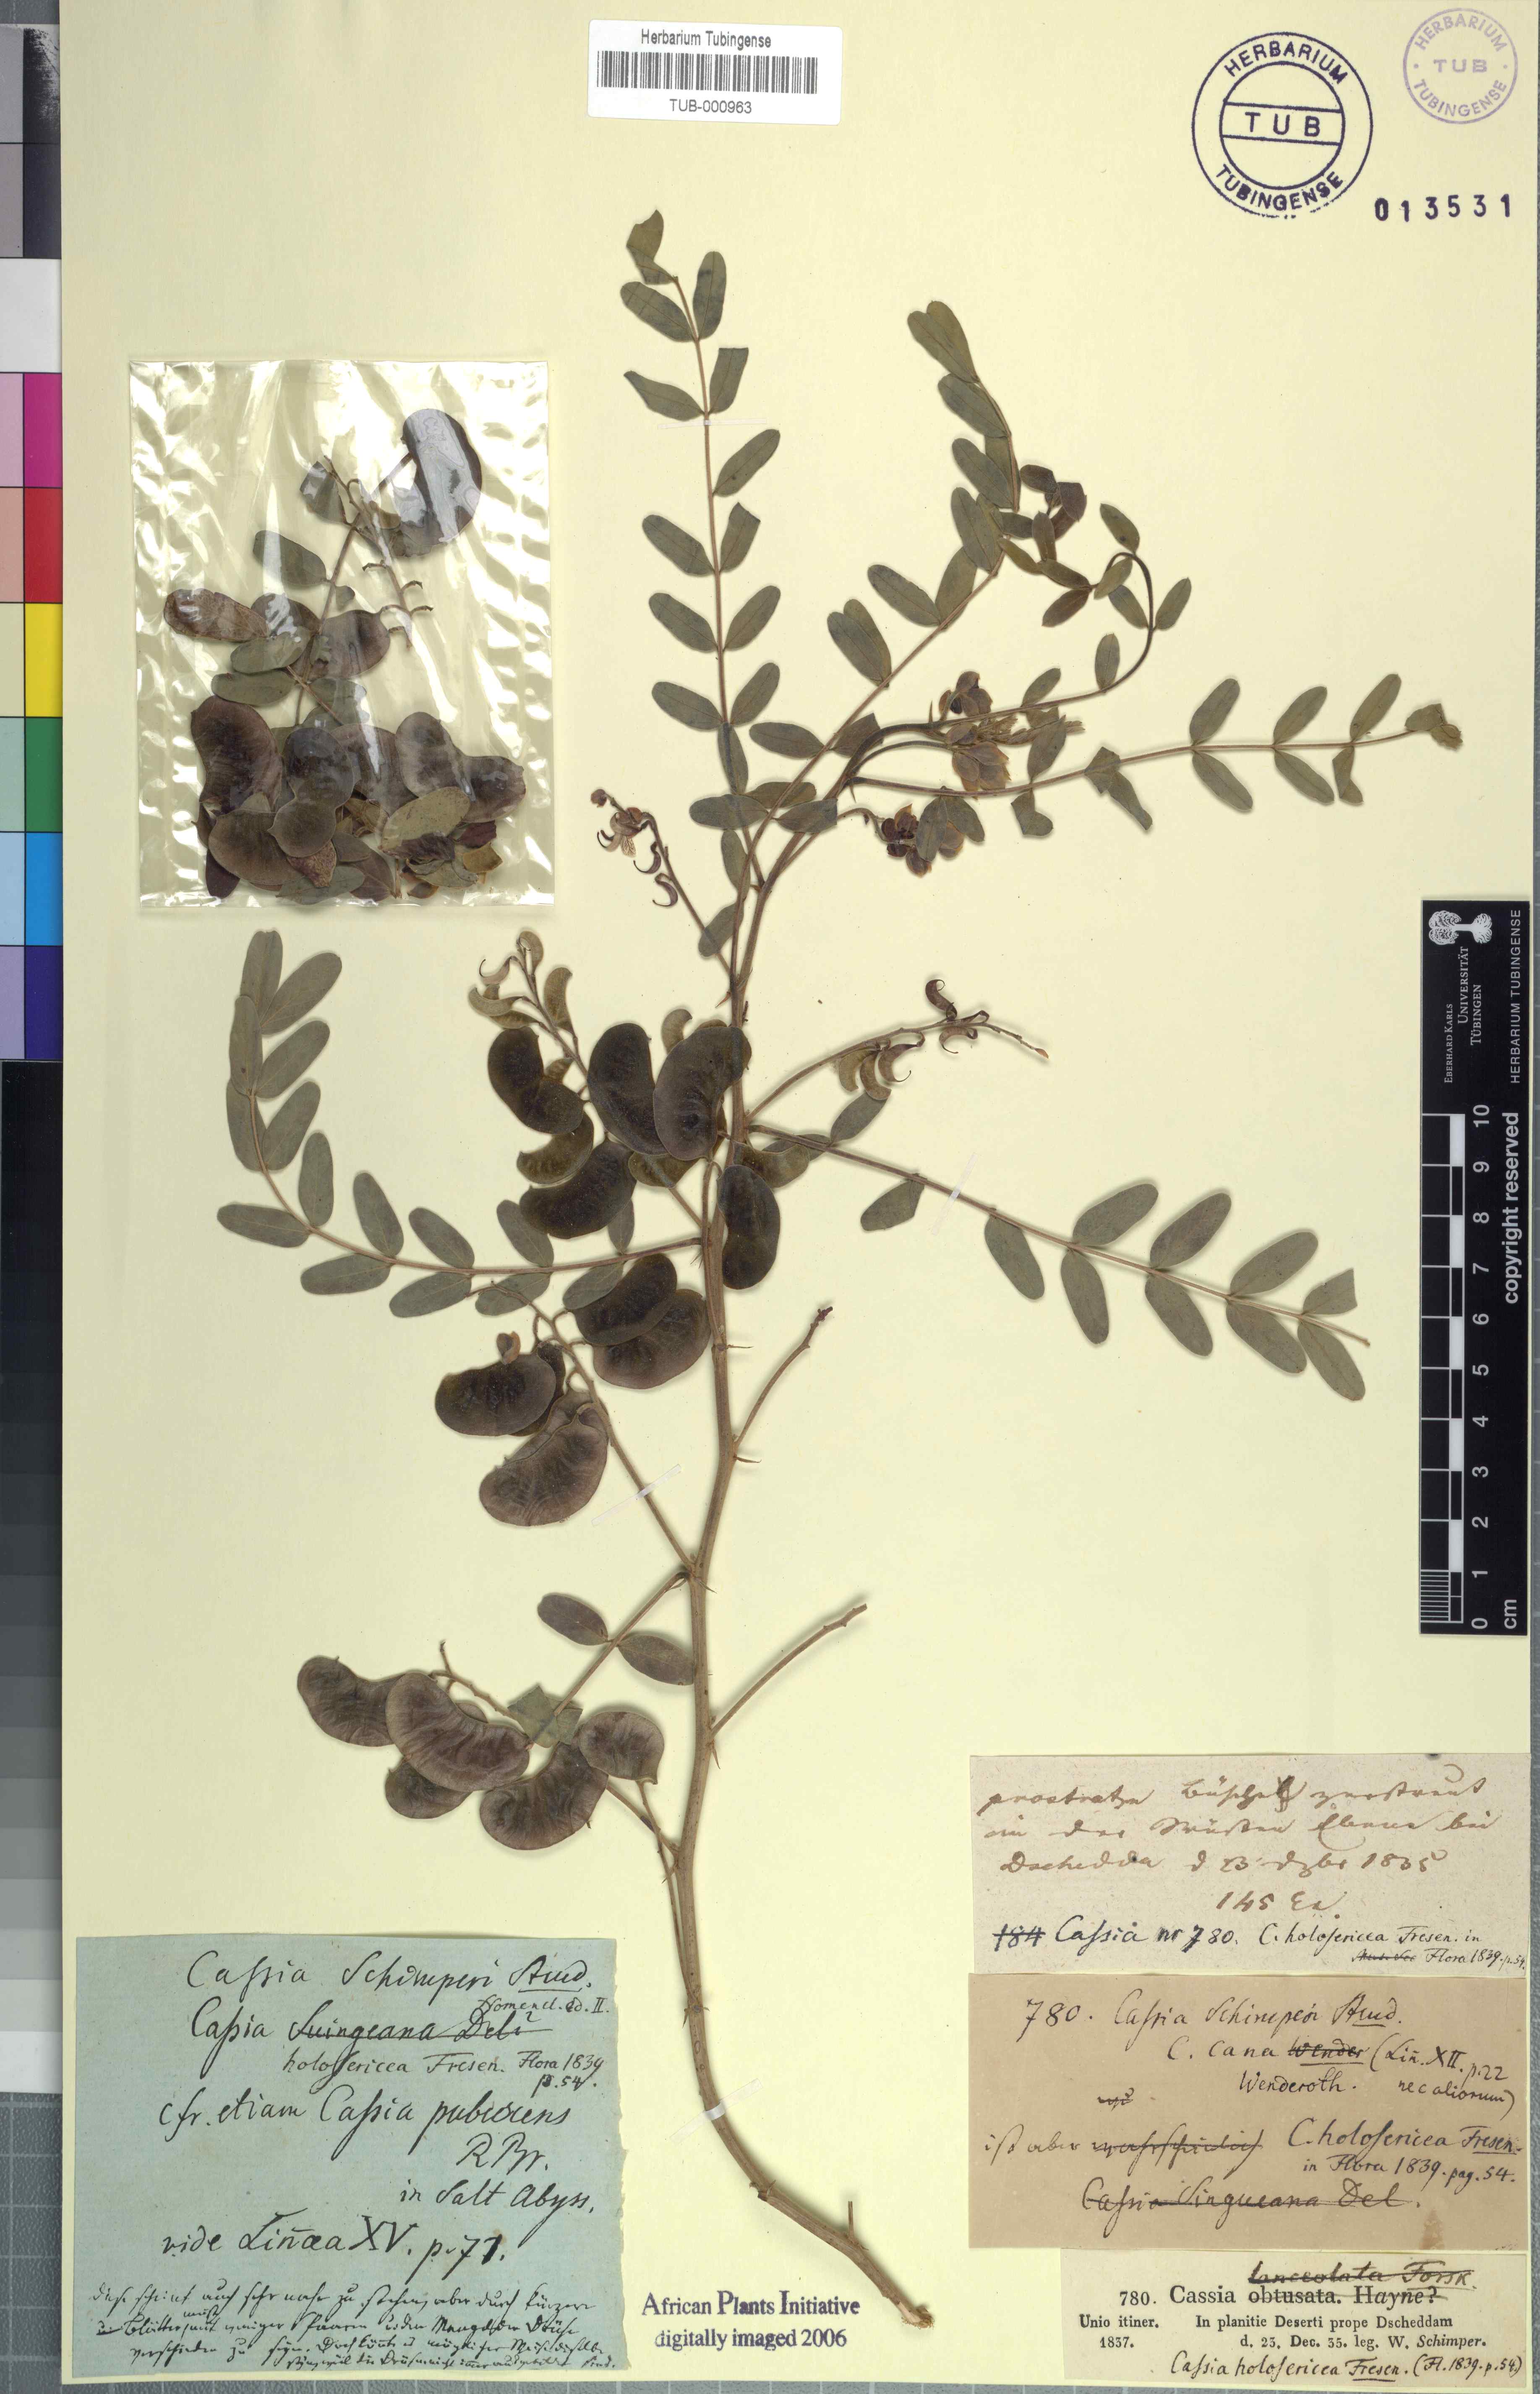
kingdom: Plantae
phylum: Tracheophyta
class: Magnoliopsida
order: Fabales
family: Fabaceae
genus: Senna
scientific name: Senna holosericea
